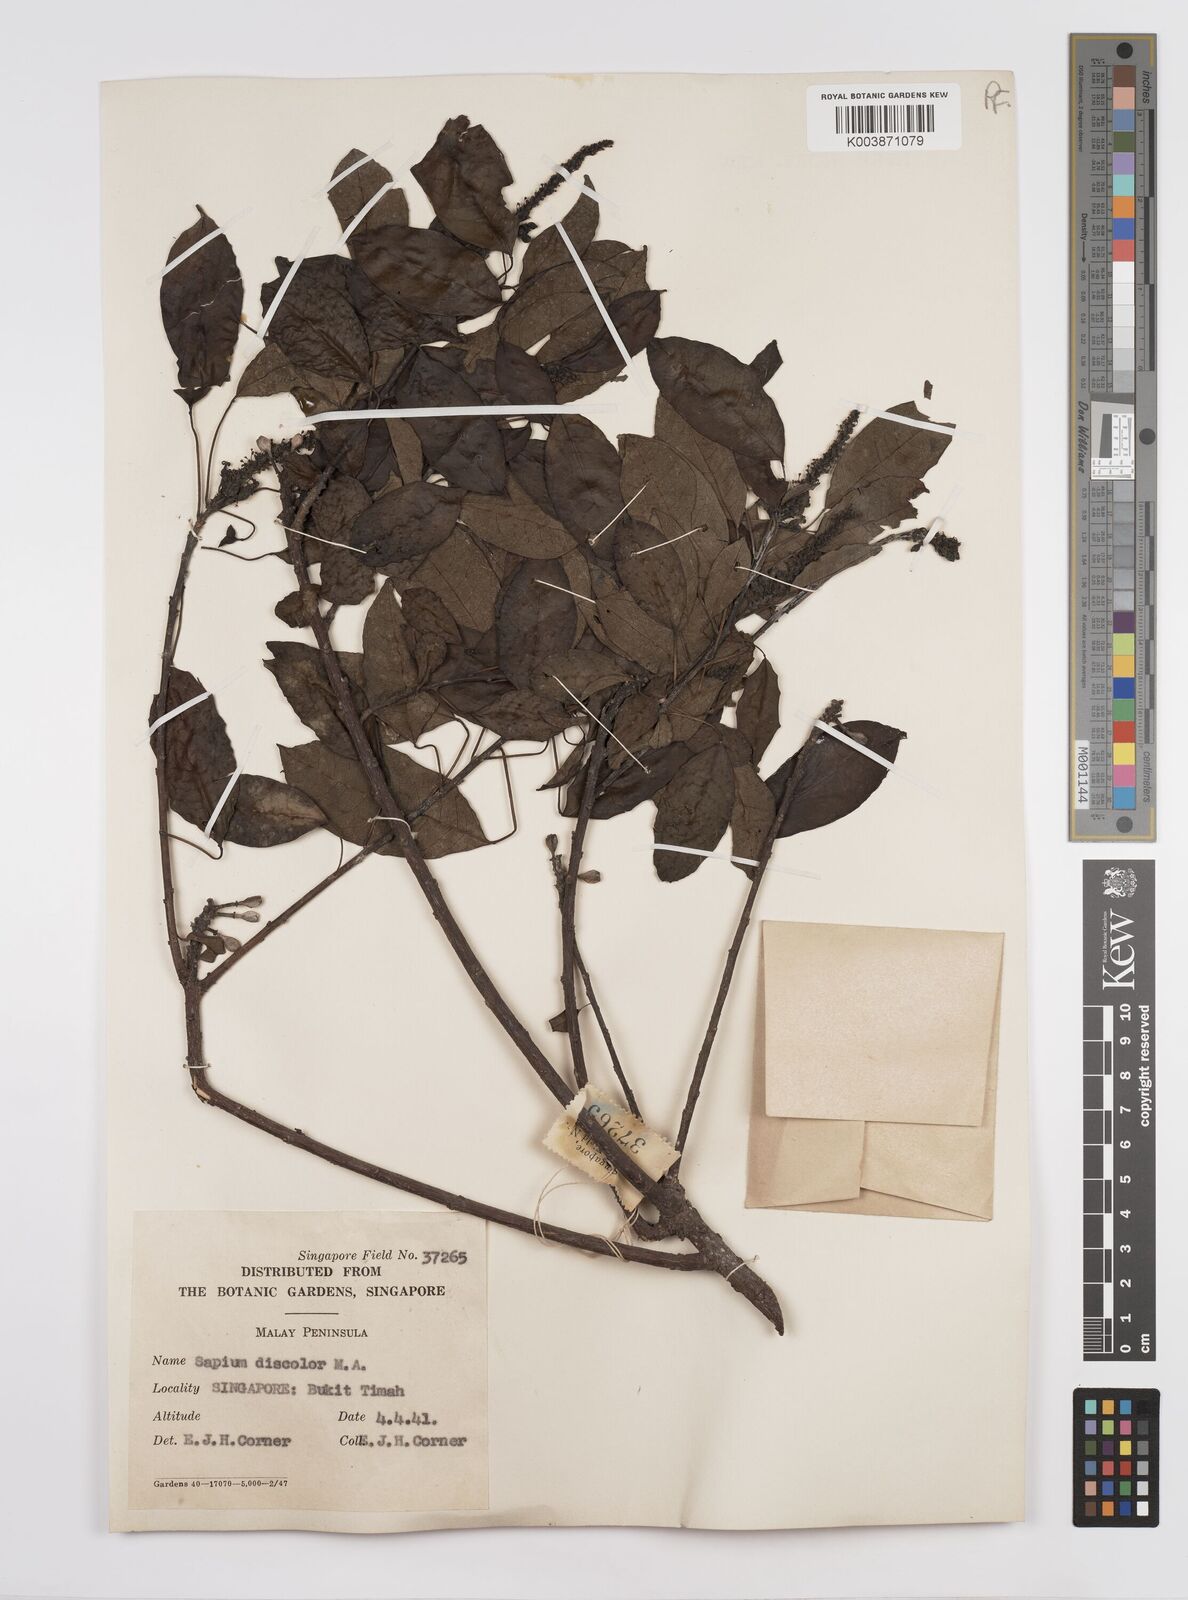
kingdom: Plantae
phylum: Tracheophyta
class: Magnoliopsida
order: Malpighiales
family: Euphorbiaceae
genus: Triadica
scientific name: Triadica cochinchinensis
